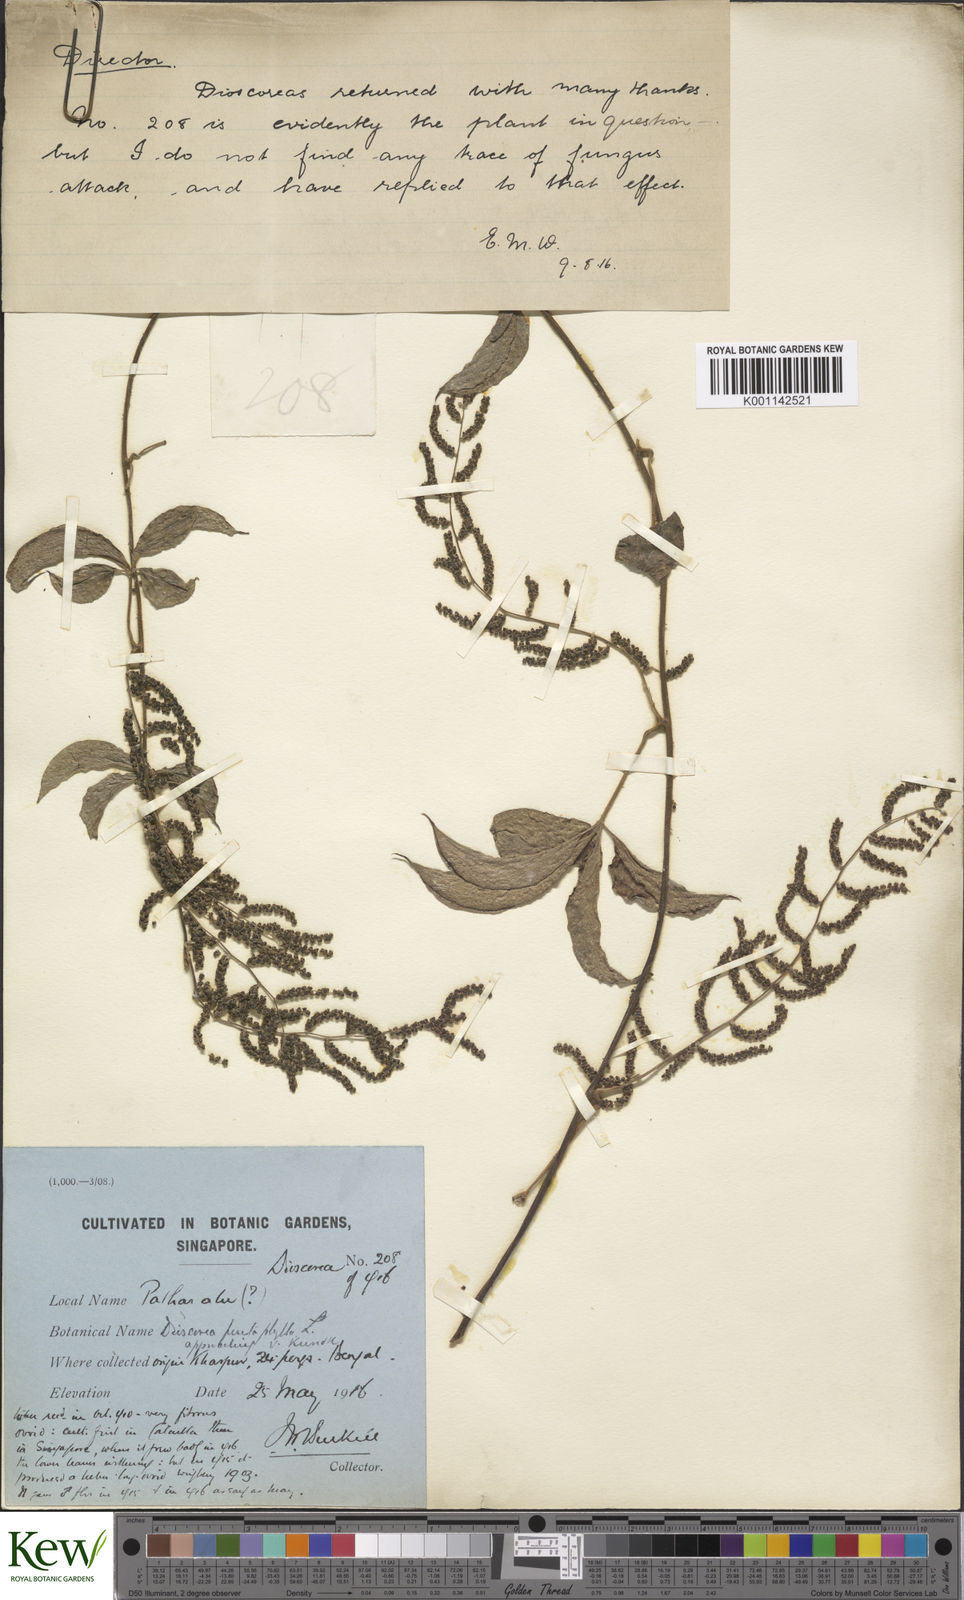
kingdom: Plantae
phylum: Tracheophyta
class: Liliopsida
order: Dioscoreales
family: Dioscoreaceae
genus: Dioscorea
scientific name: Dioscorea pentaphylla
